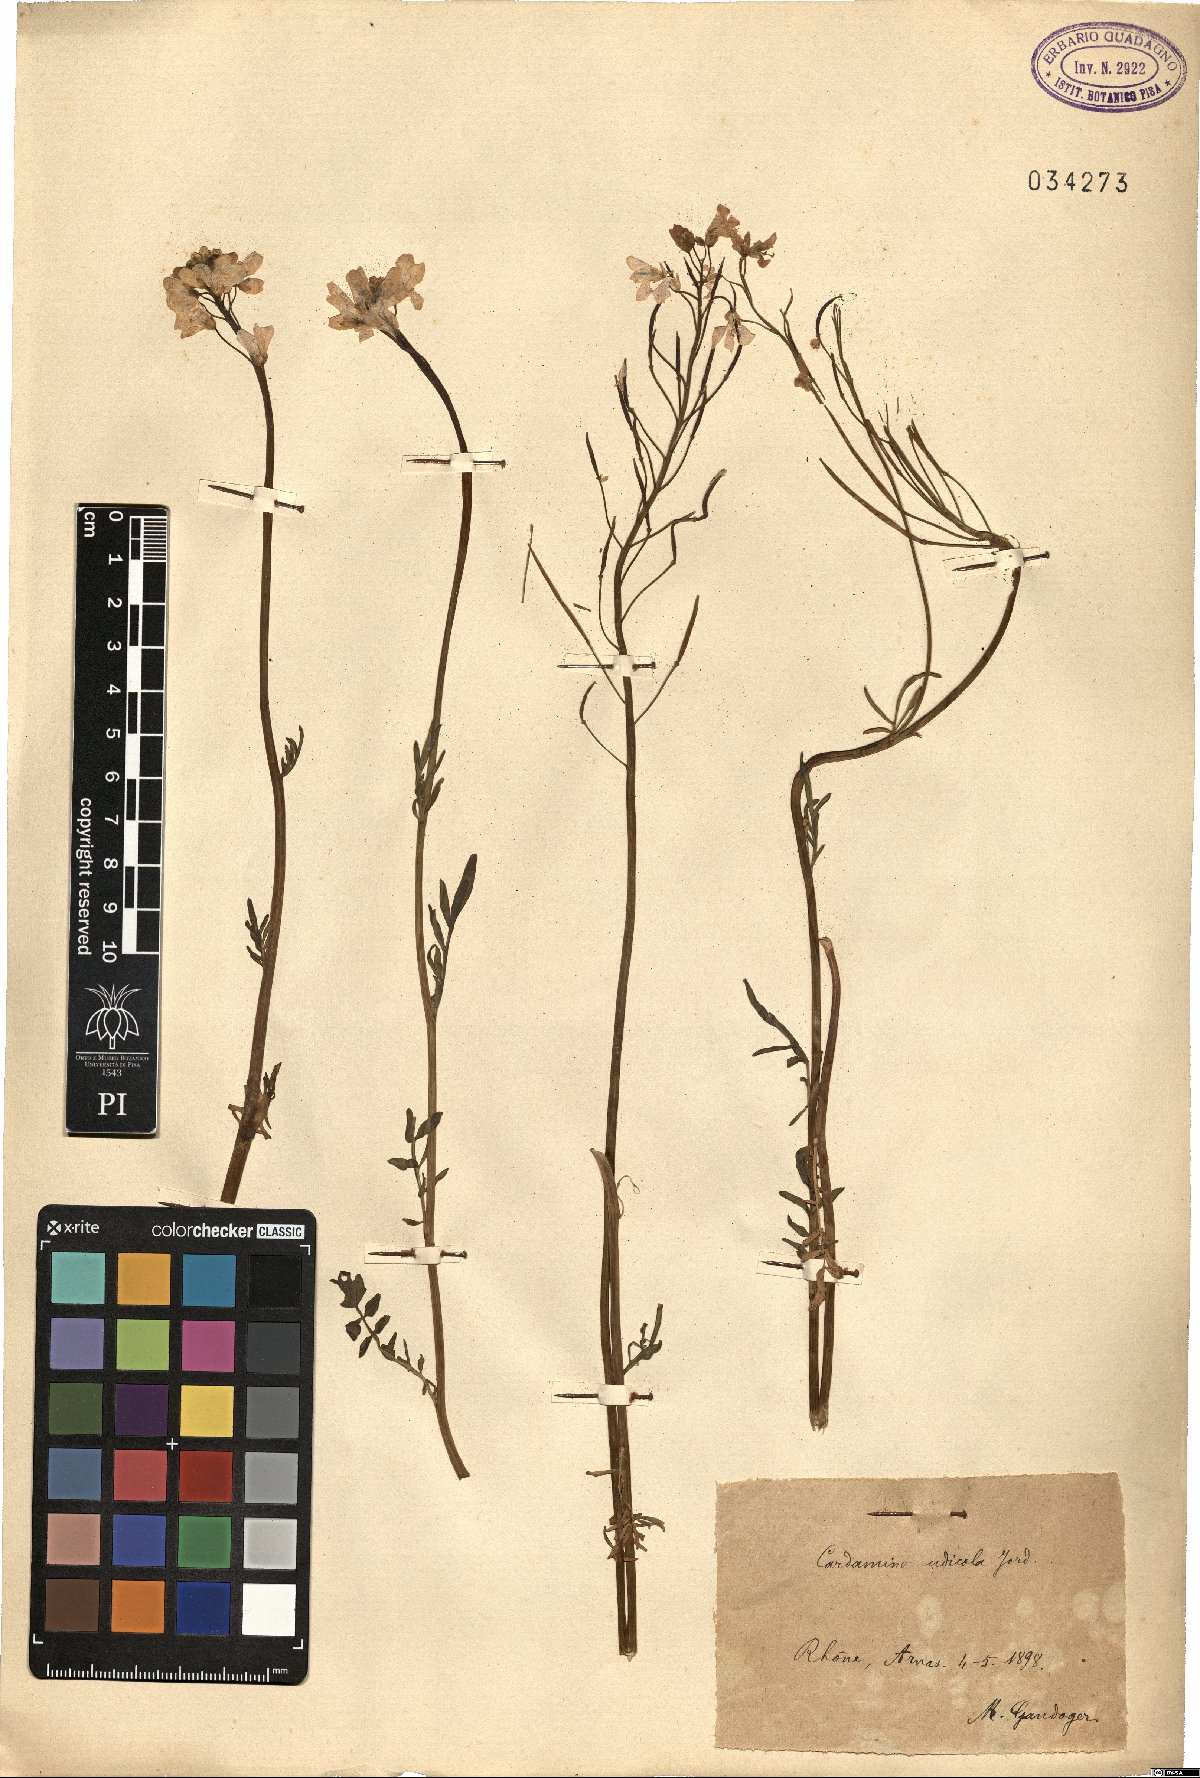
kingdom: Plantae
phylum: Tracheophyta
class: Magnoliopsida
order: Brassicales
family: Brassicaceae
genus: Cardamine
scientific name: Cardamine udicola
